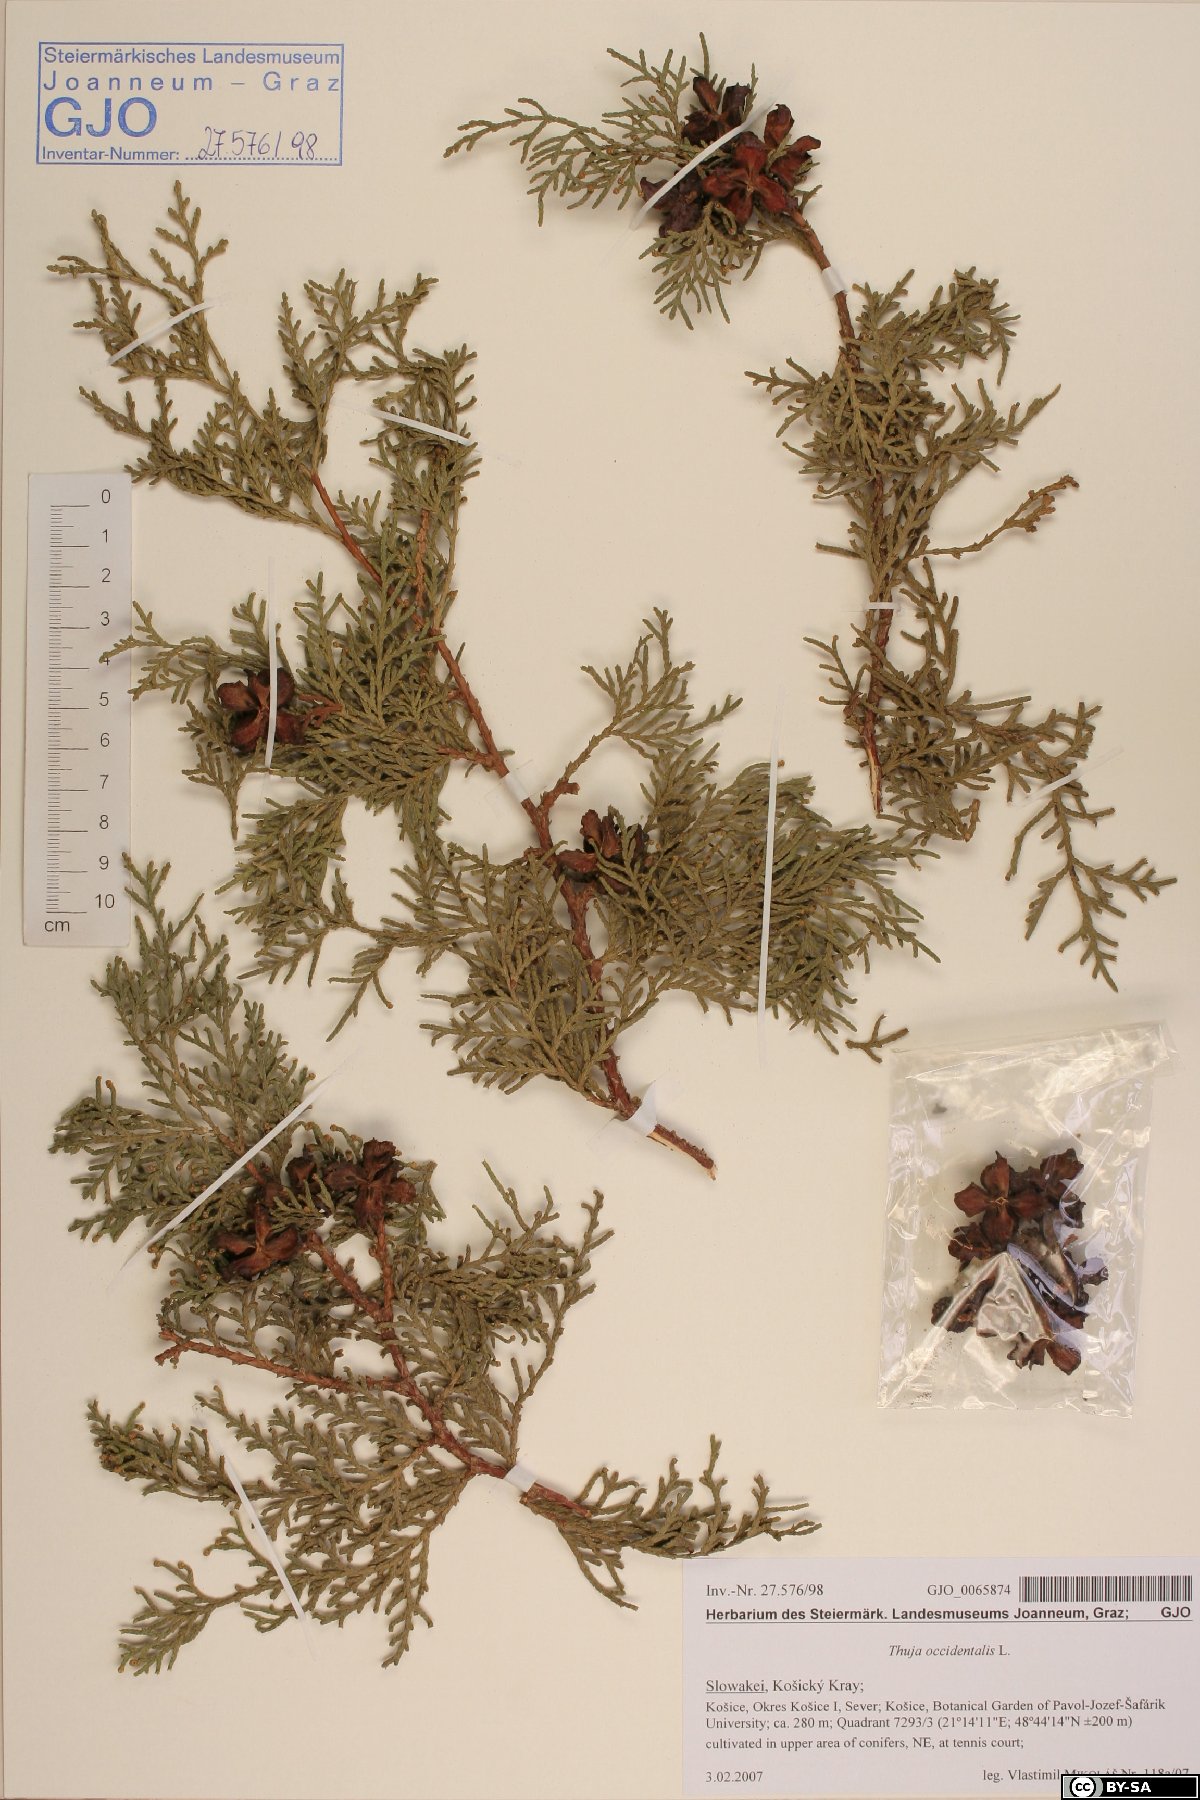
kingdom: Plantae
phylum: Tracheophyta
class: Pinopsida
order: Pinales
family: Cupressaceae
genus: Thuja
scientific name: Thuja occidentalis
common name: Northern white-cedar
